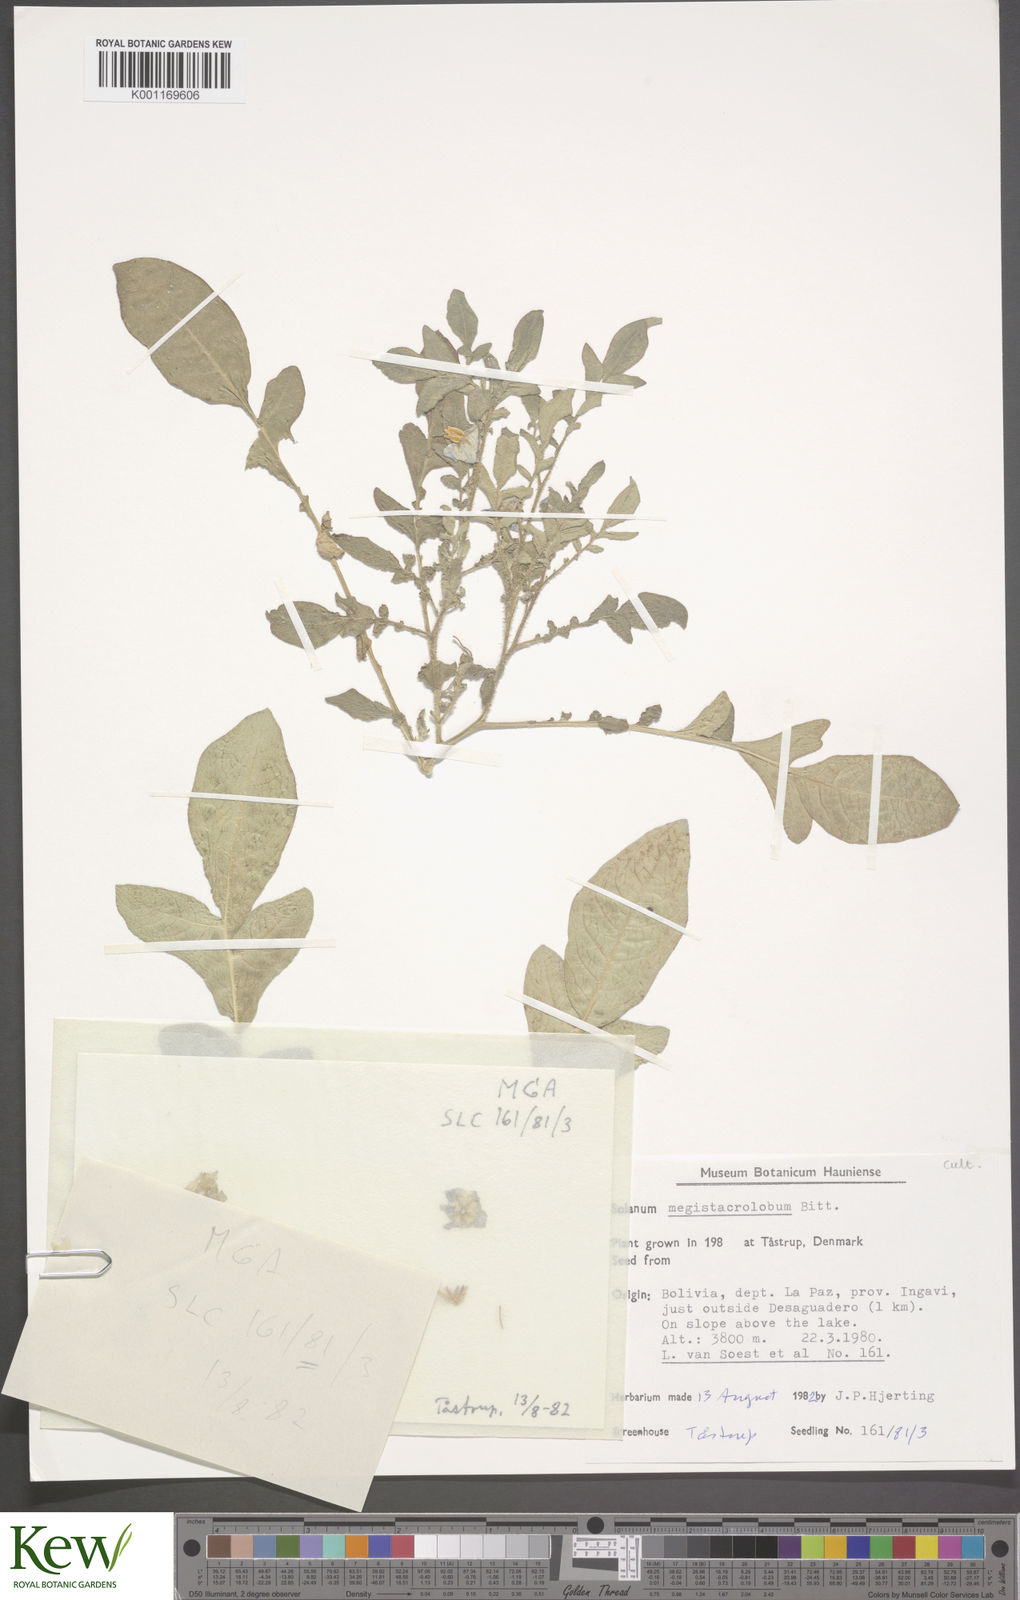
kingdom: Plantae
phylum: Tracheophyta
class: Magnoliopsida
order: Solanales
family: Solanaceae
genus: Solanum
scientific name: Solanum boliviense
